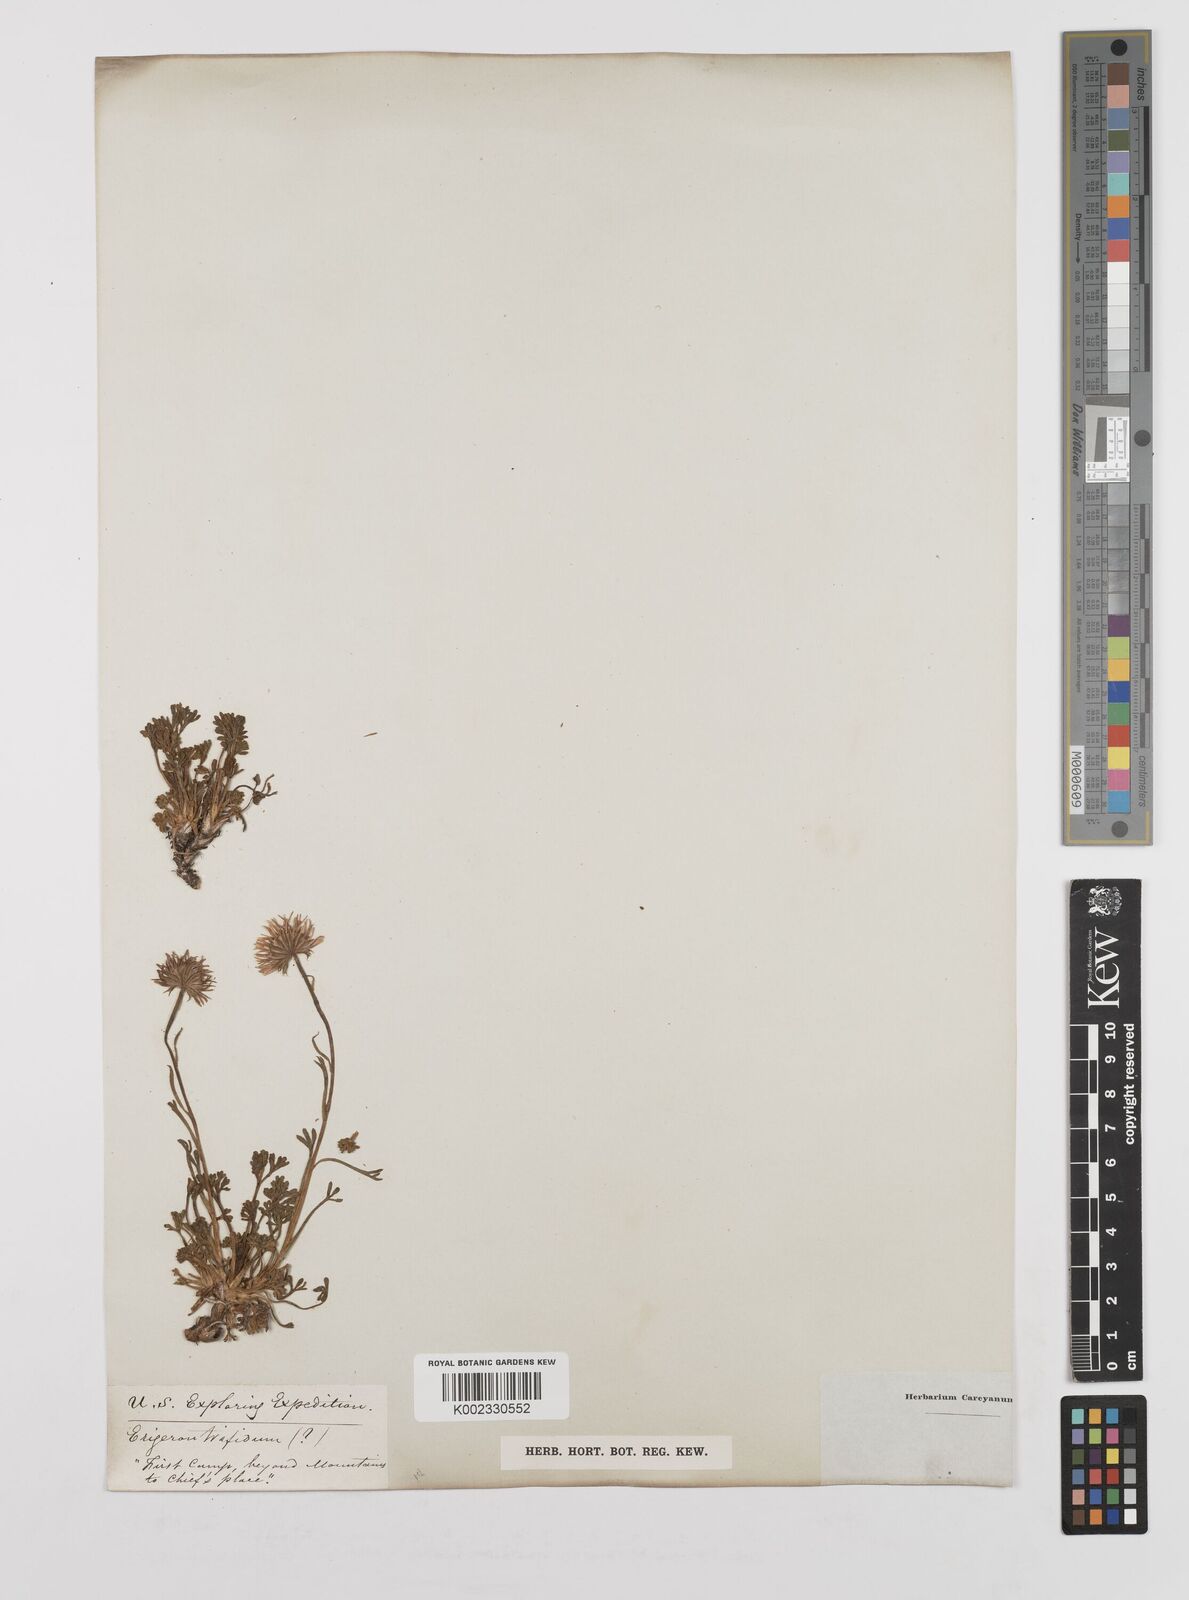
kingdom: Plantae
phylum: Tracheophyta
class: Magnoliopsida
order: Asterales
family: Asteraceae
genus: Erigeron
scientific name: Erigeron compositus
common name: Dwarf mountain fleabane
